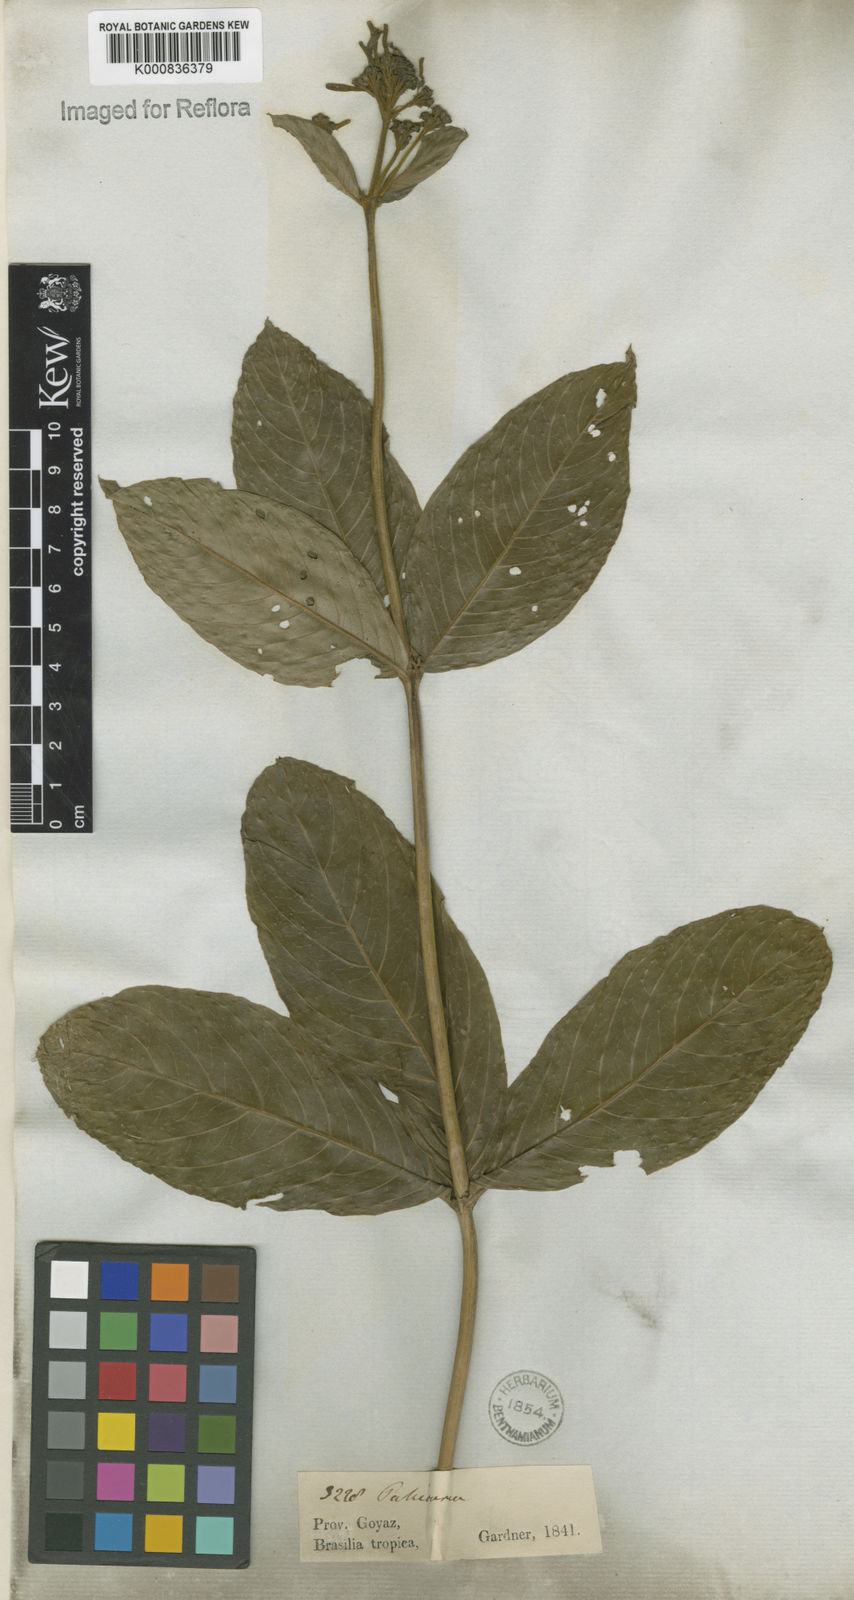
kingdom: Plantae
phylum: Tracheophyta
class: Magnoliopsida
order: Gentianales
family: Rubiaceae
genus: Palicourea
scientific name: Palicourea officinalis
